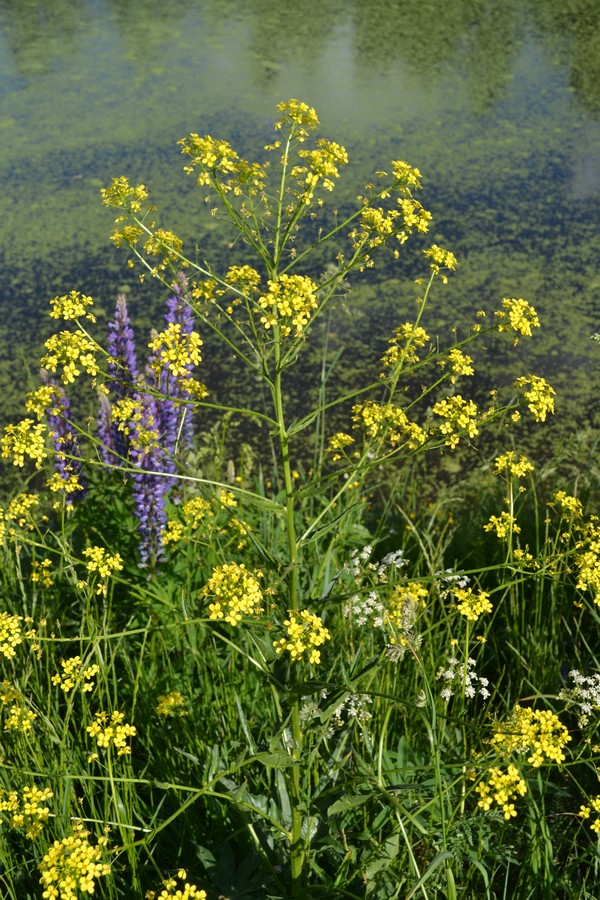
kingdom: Plantae
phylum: Tracheophyta
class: Magnoliopsida
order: Brassicales
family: Brassicaceae
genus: Barbarea
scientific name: Barbarea vulgaris
